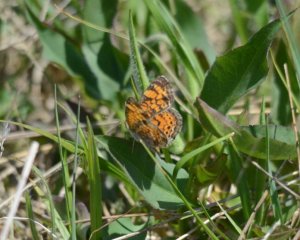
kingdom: Animalia
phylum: Arthropoda
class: Insecta
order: Lepidoptera
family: Nymphalidae
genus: Phyciodes
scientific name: Phyciodes tharos
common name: Northern Crescent
